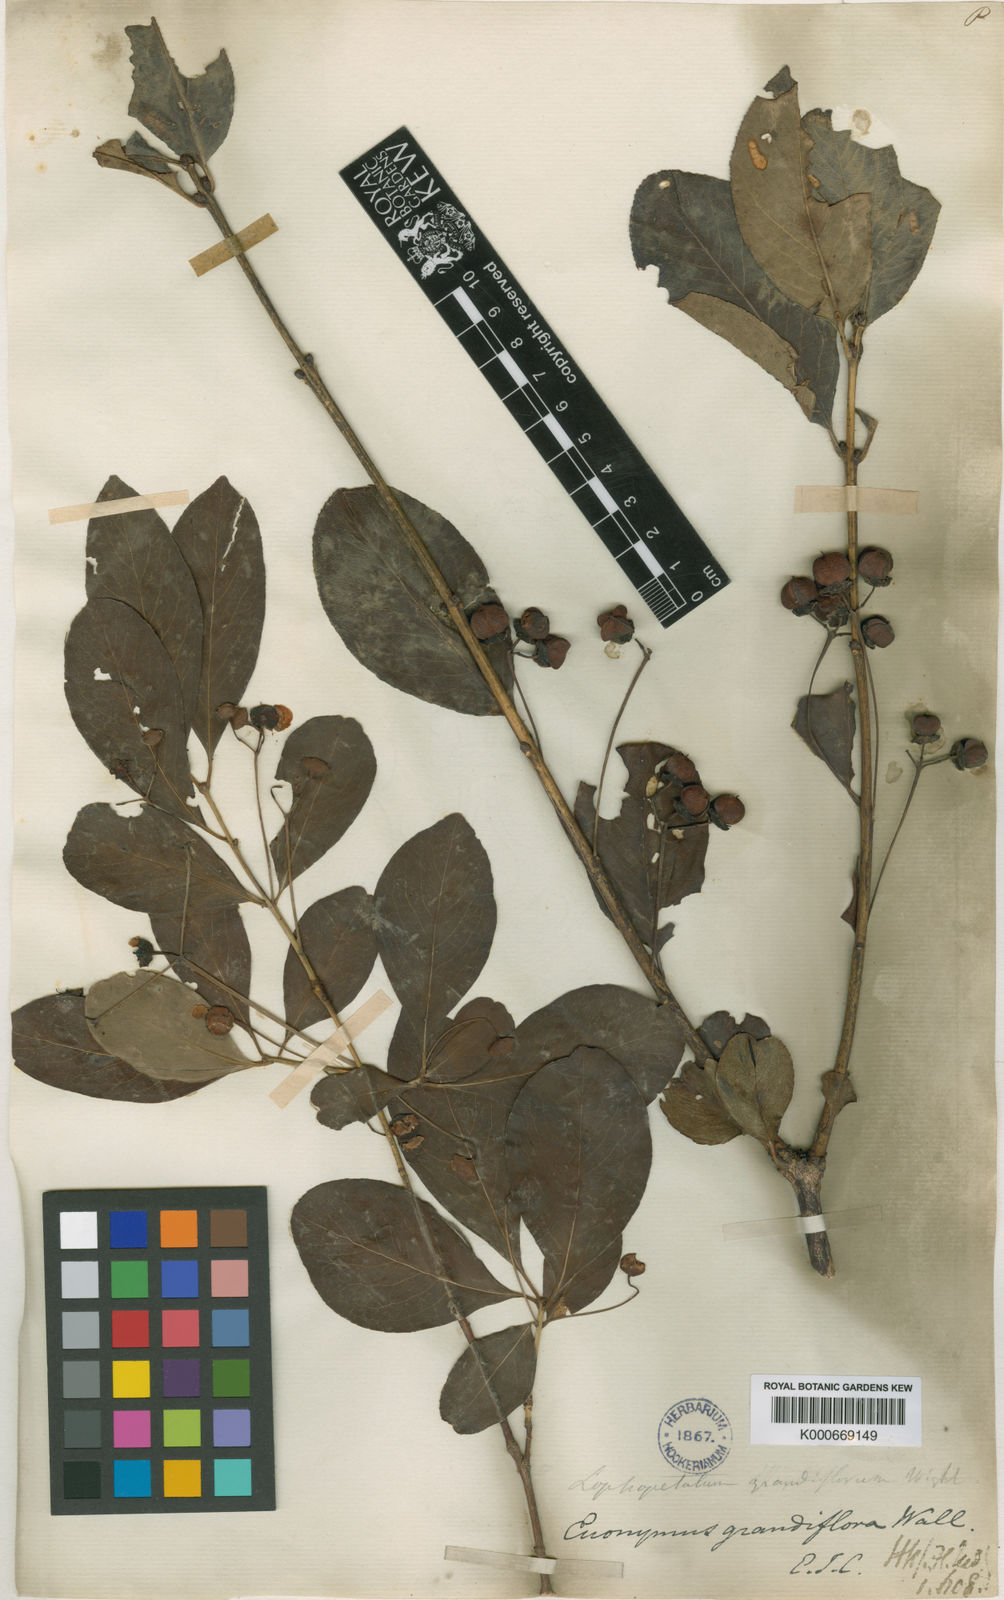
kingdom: Plantae
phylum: Tracheophyta
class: Magnoliopsida
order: Celastrales
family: Celastraceae
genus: Euonymus
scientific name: Euonymus grandiflorus
